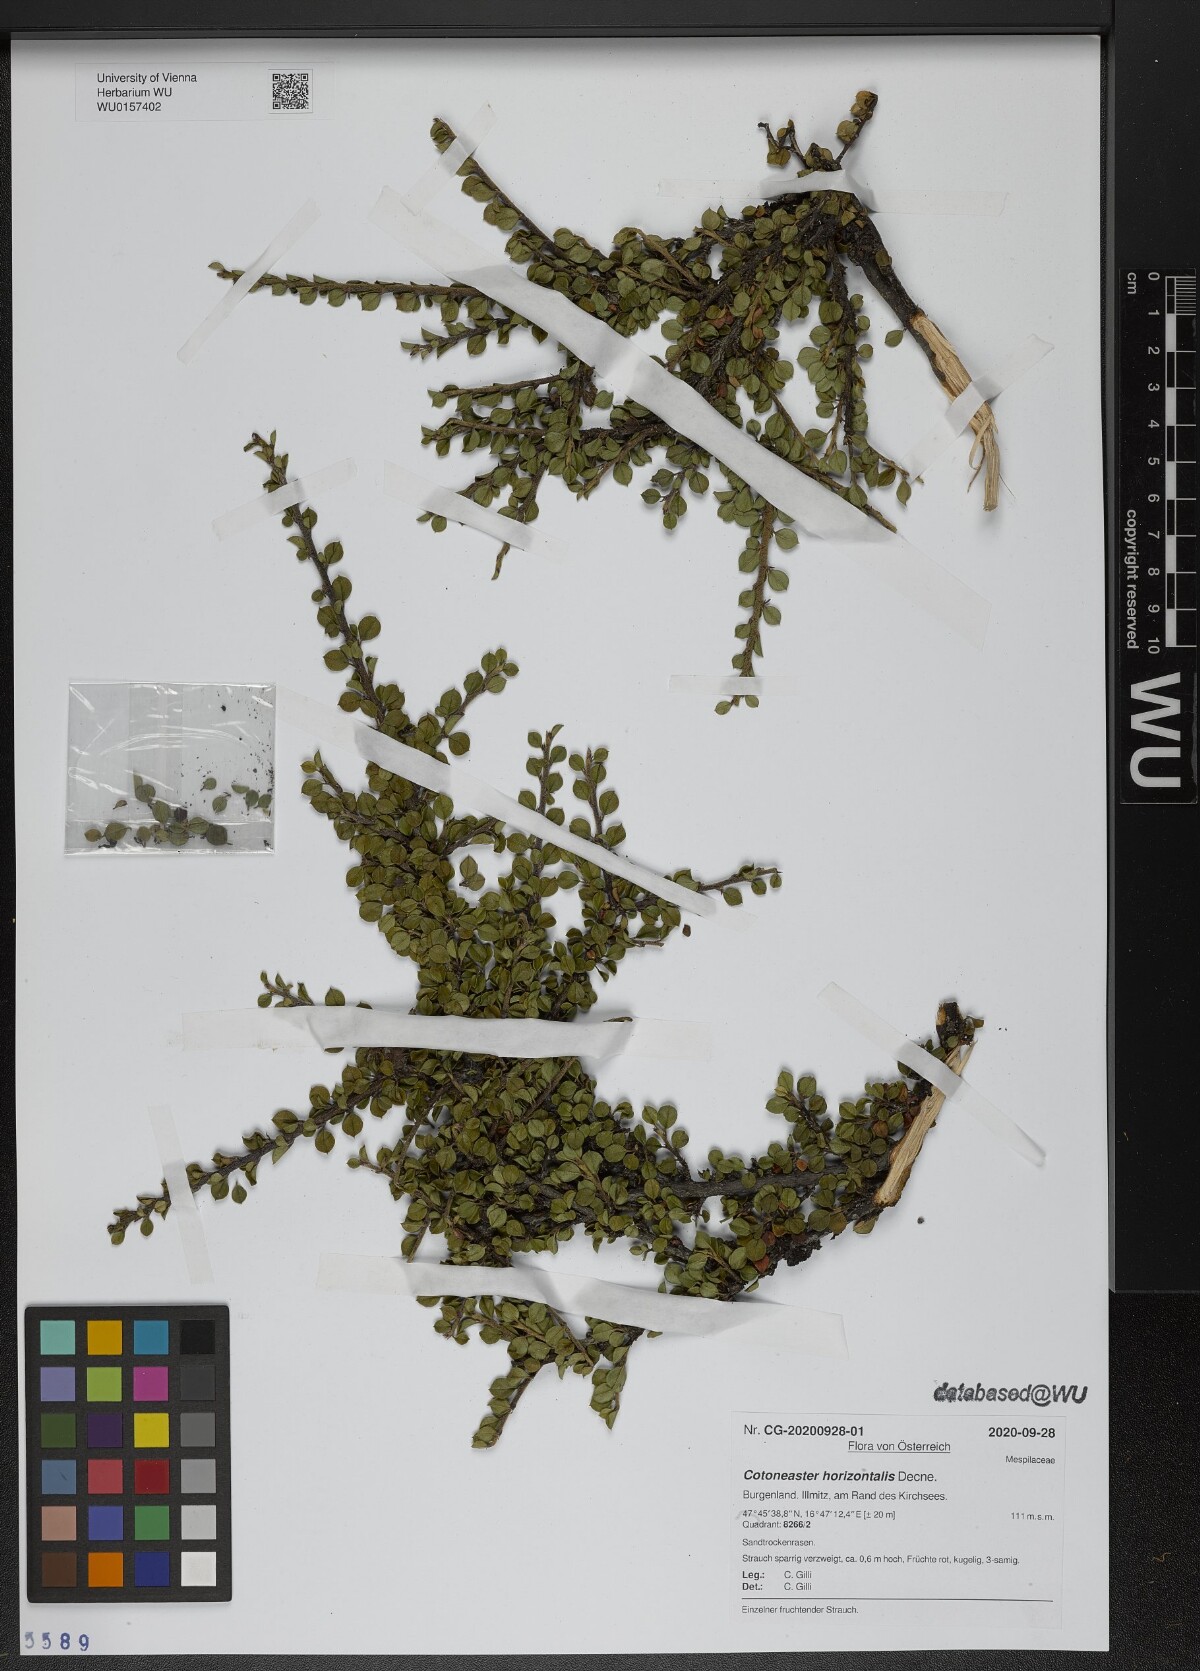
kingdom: Plantae
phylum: Tracheophyta
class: Magnoliopsida
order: Rosales
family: Rosaceae
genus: Cotoneaster
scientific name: Cotoneaster horizontalis
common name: Wall cotoneaster
